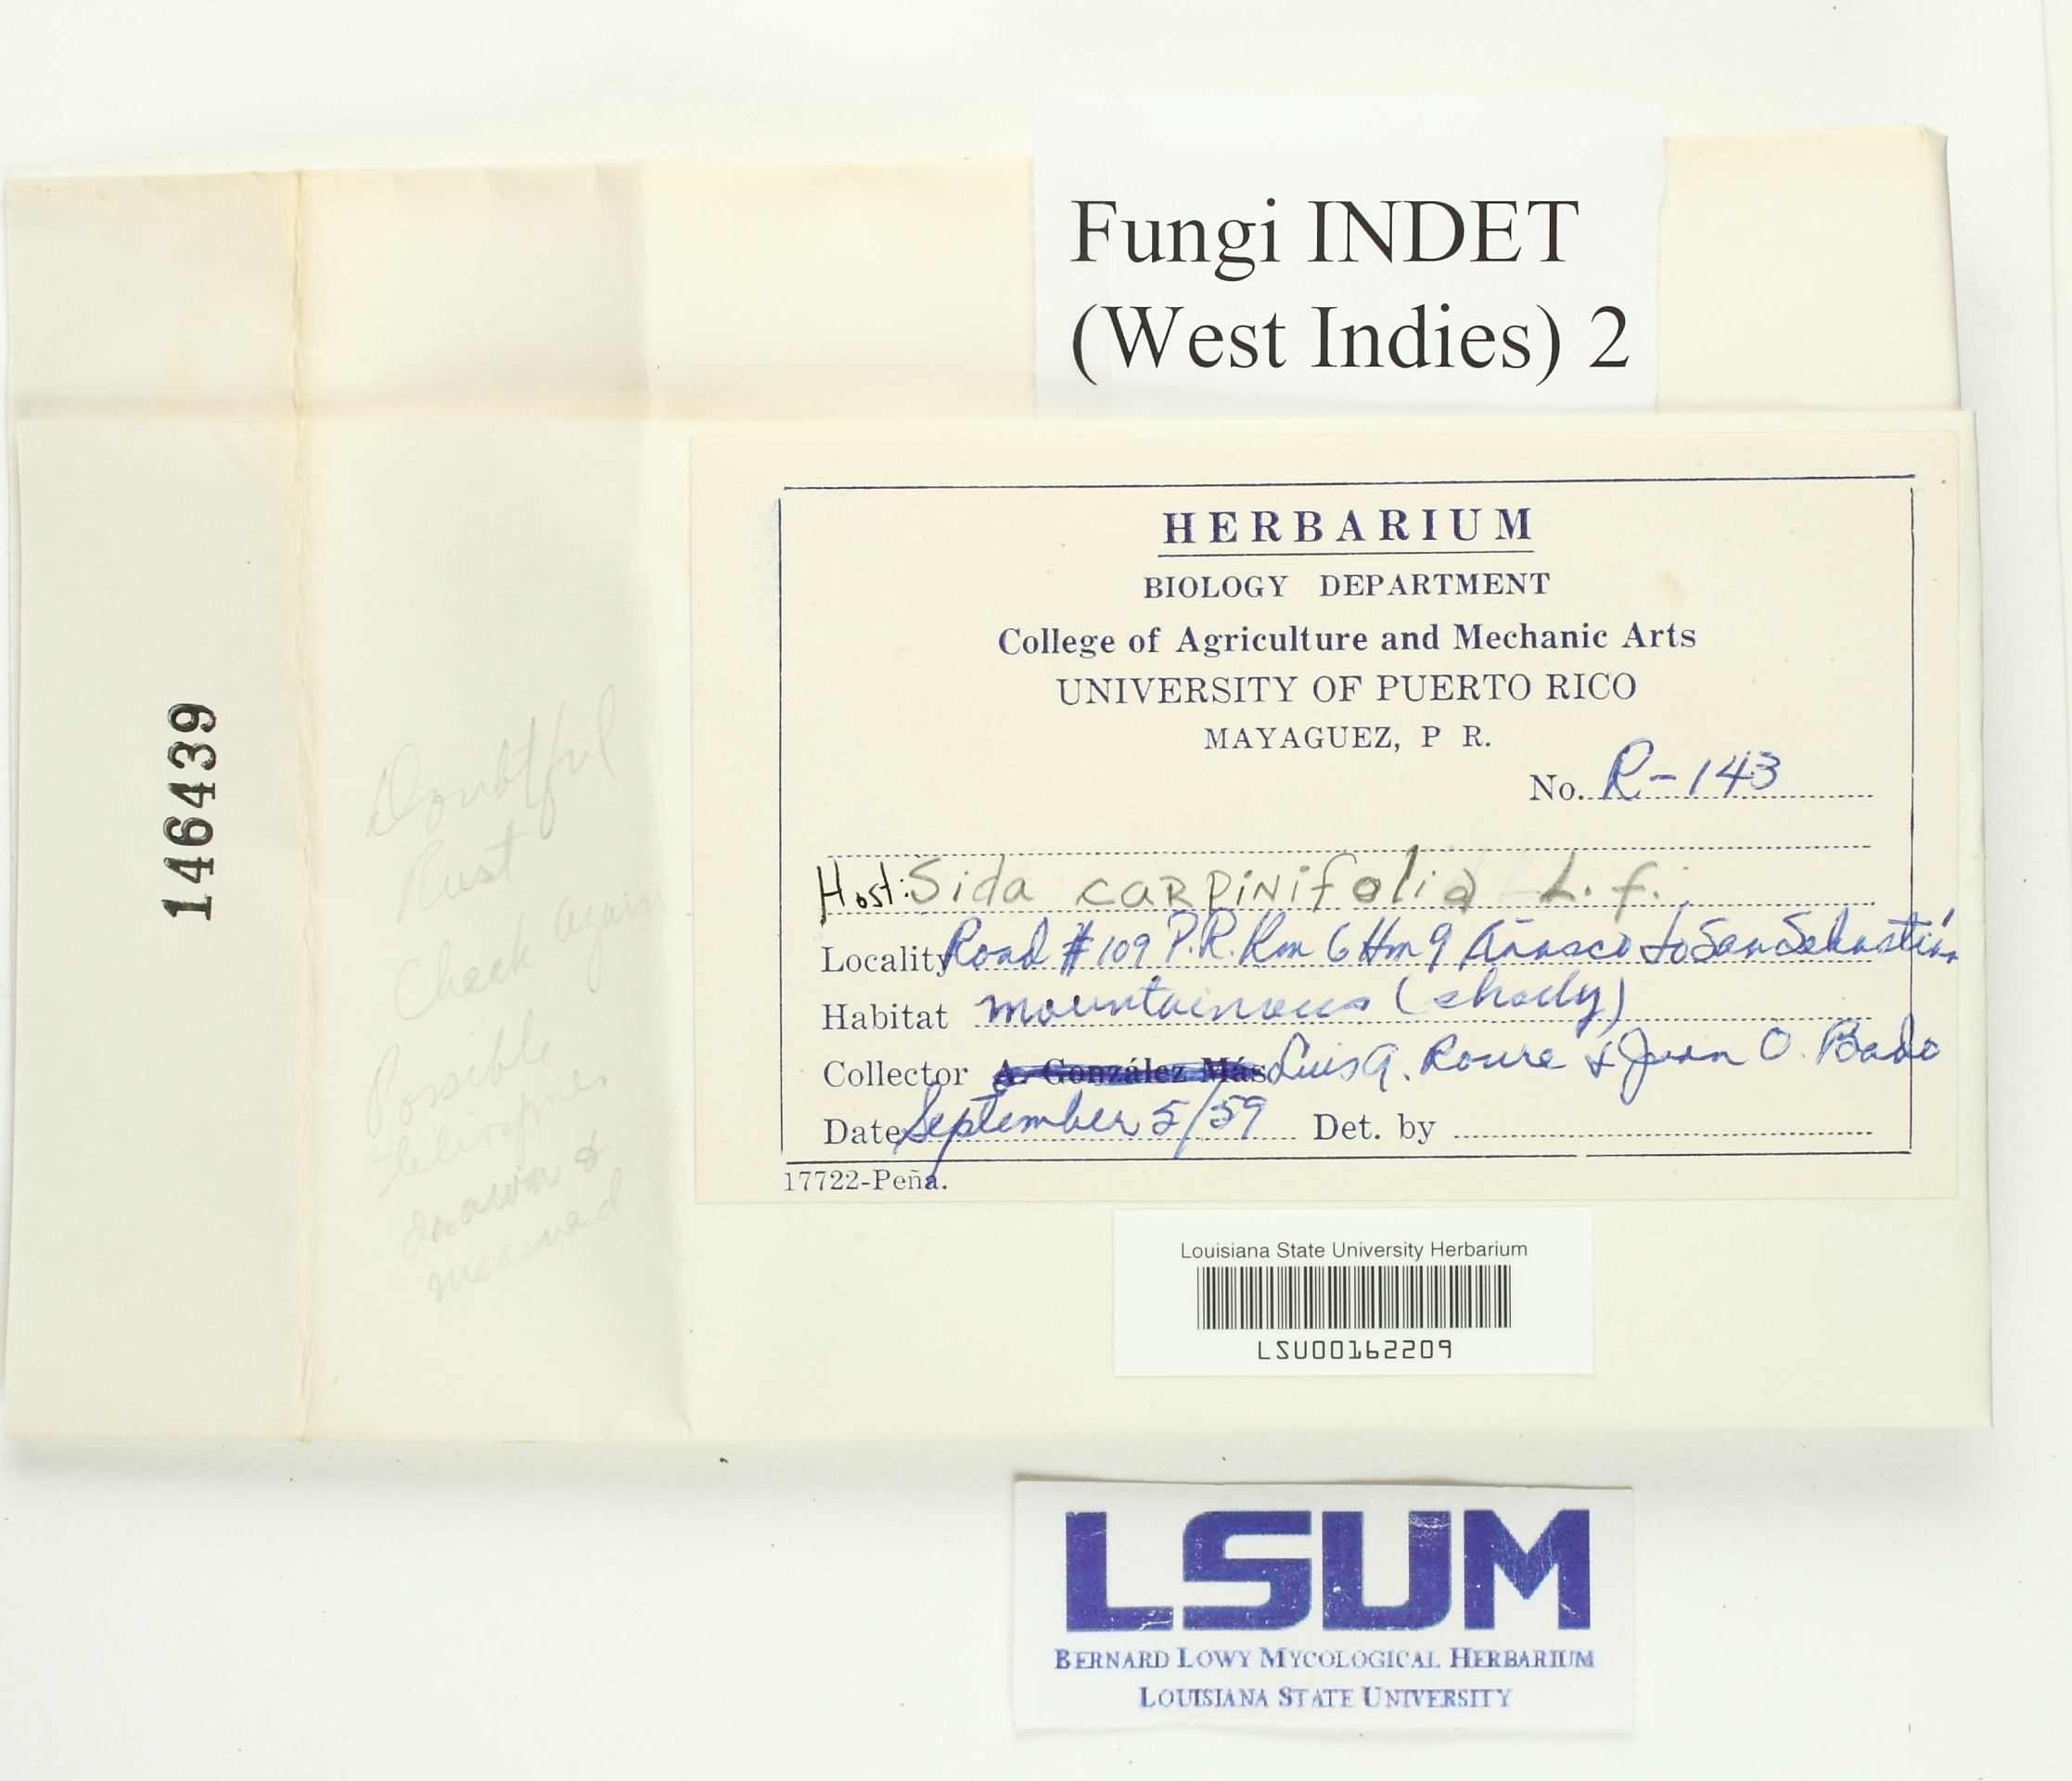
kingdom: Fungi
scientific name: Fungi
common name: Fungi
